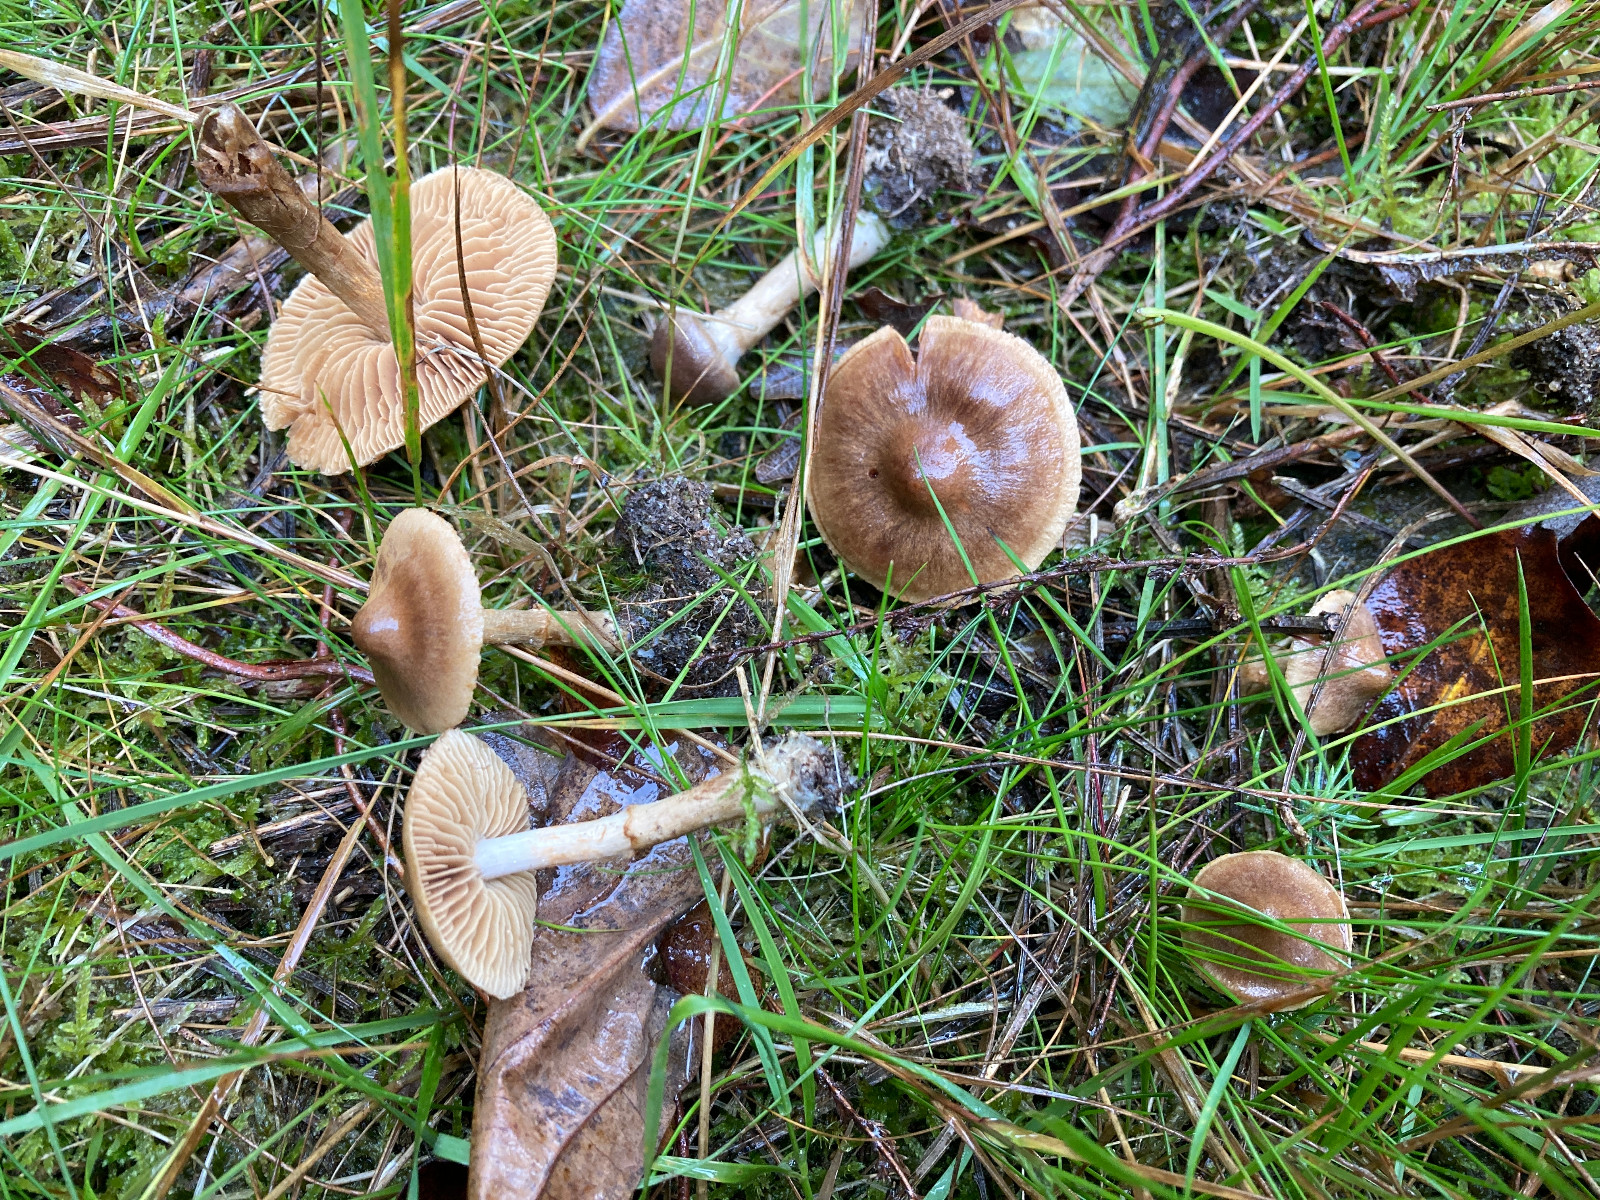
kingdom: Fungi
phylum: Basidiomycota
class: Agaricomycetes
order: Agaricales
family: Cortinariaceae
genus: Cortinarius
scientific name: Cortinarius pinisquamulosus
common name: finskællet slørhat
